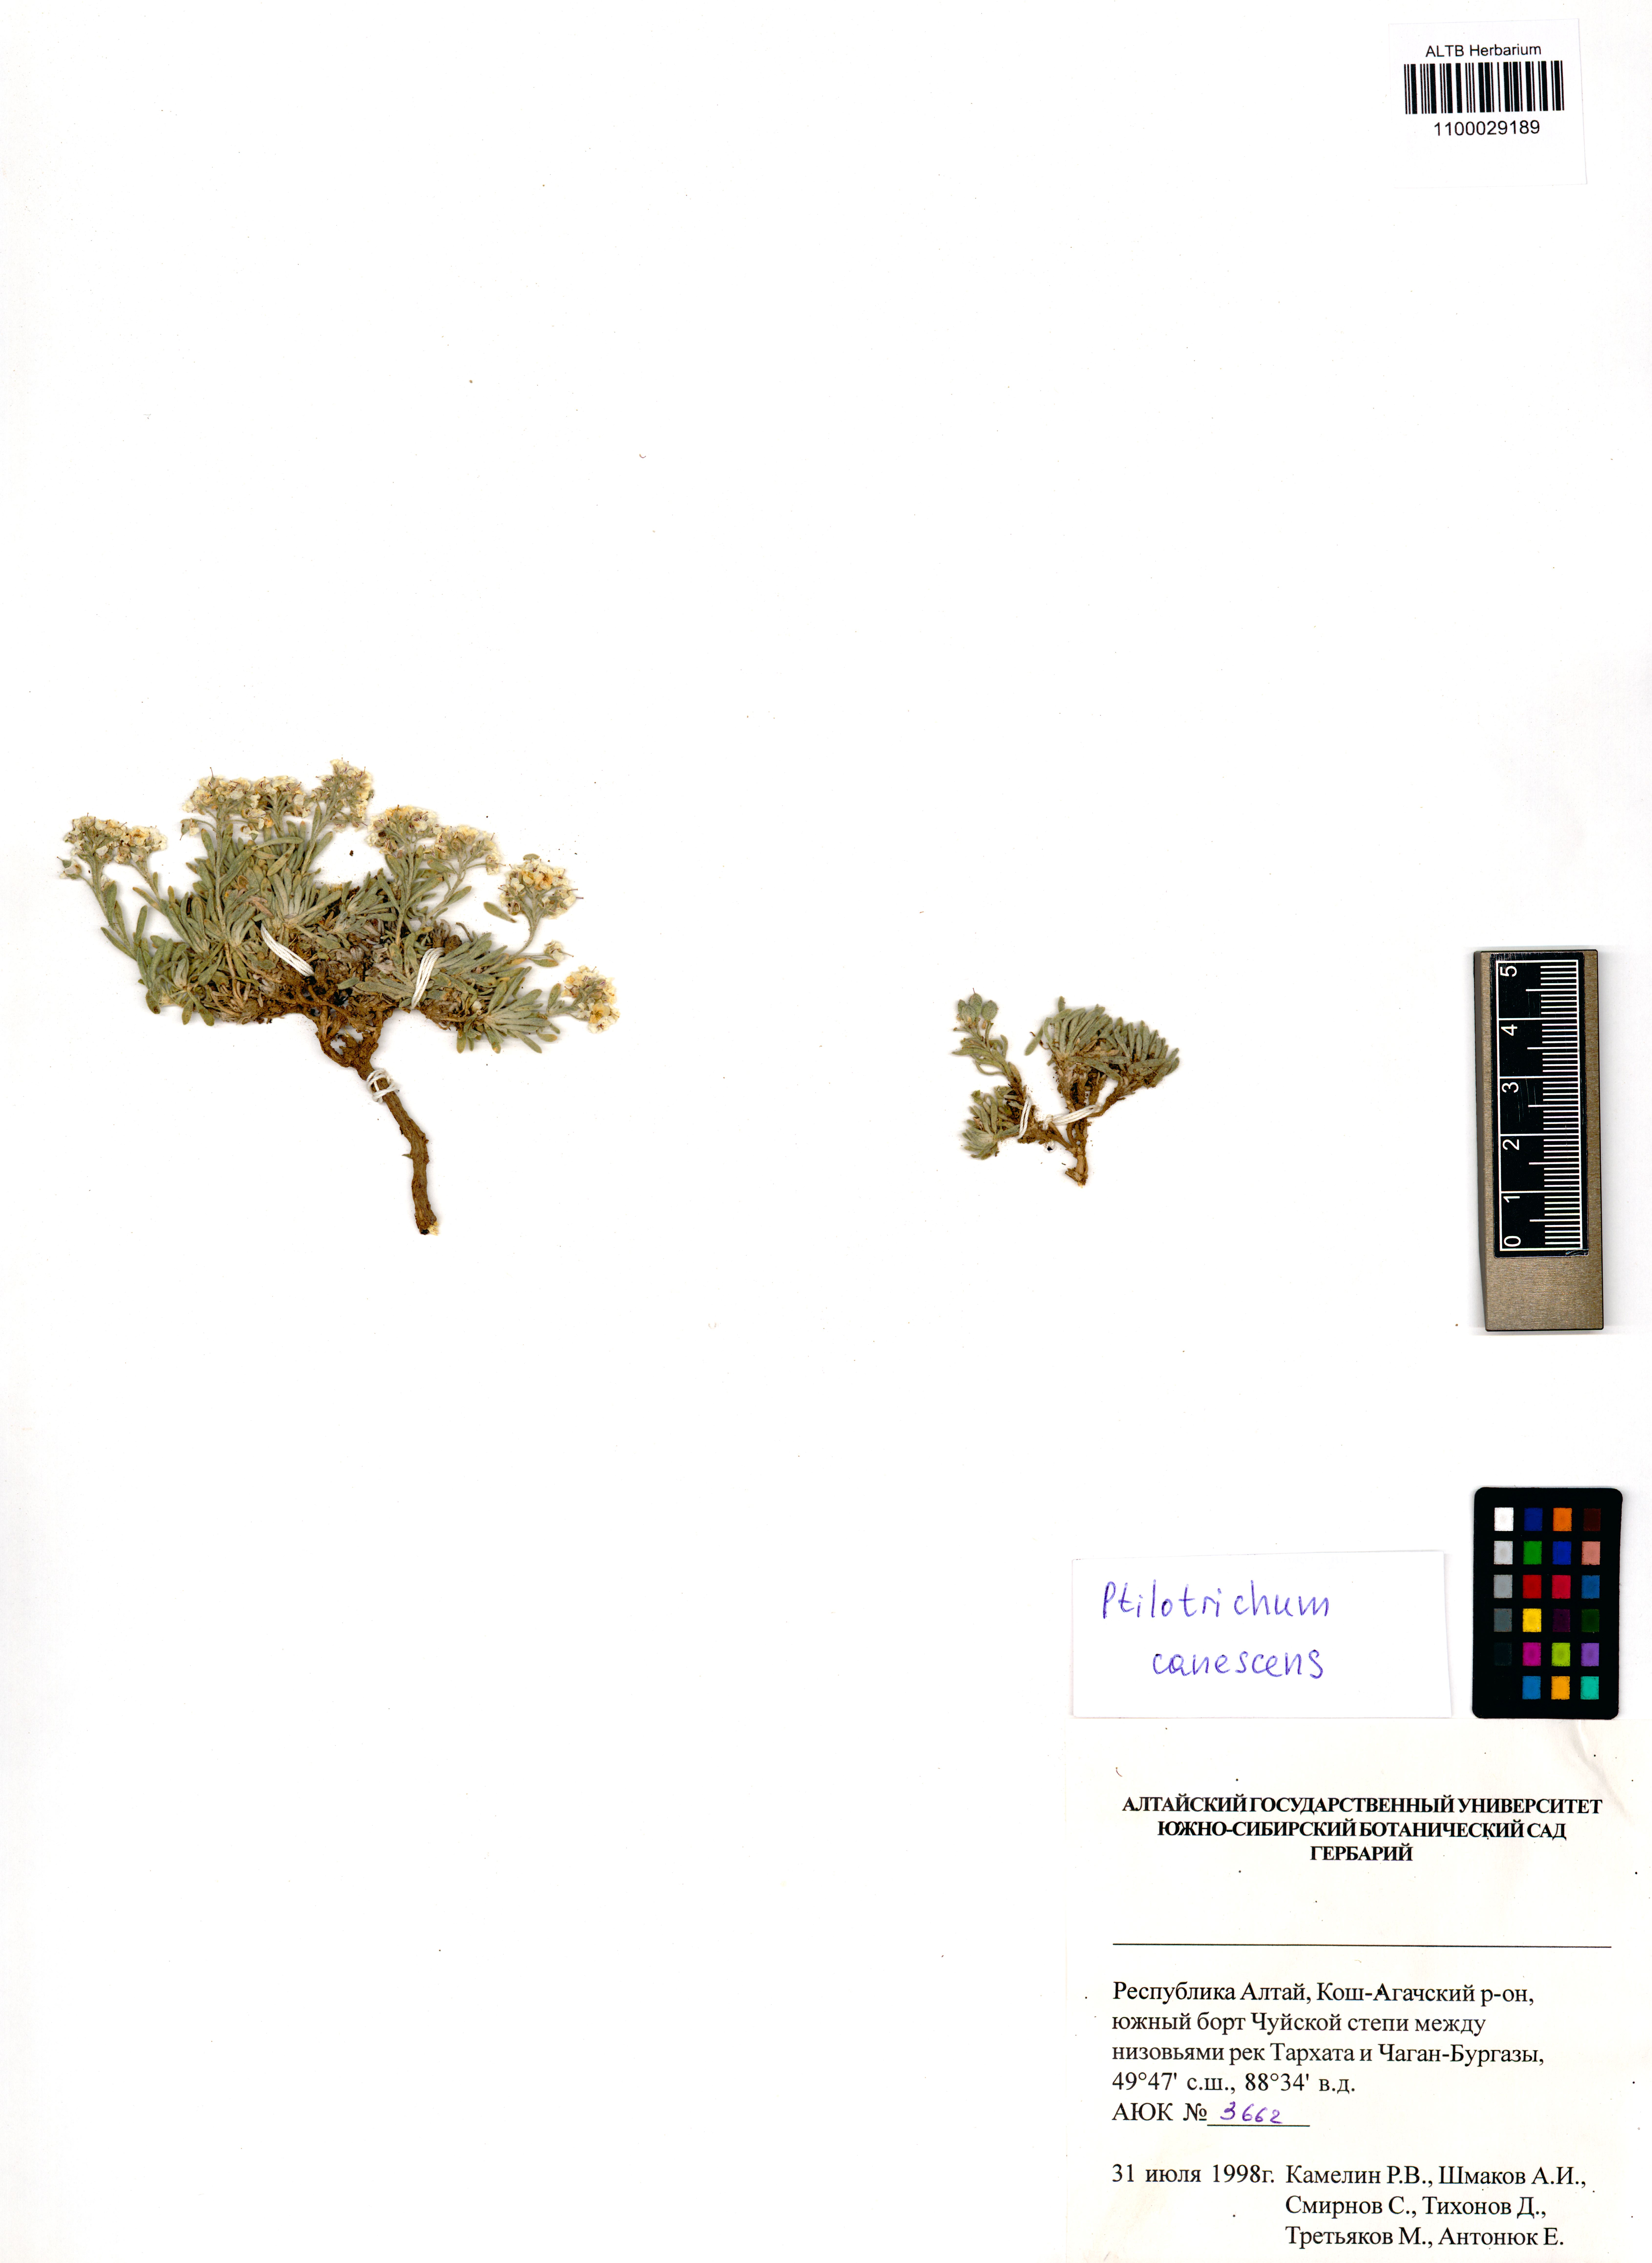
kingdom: Plantae
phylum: Tracheophyta
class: Magnoliopsida
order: Brassicales
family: Brassicaceae
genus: Stevenia
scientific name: Stevenia canescens
